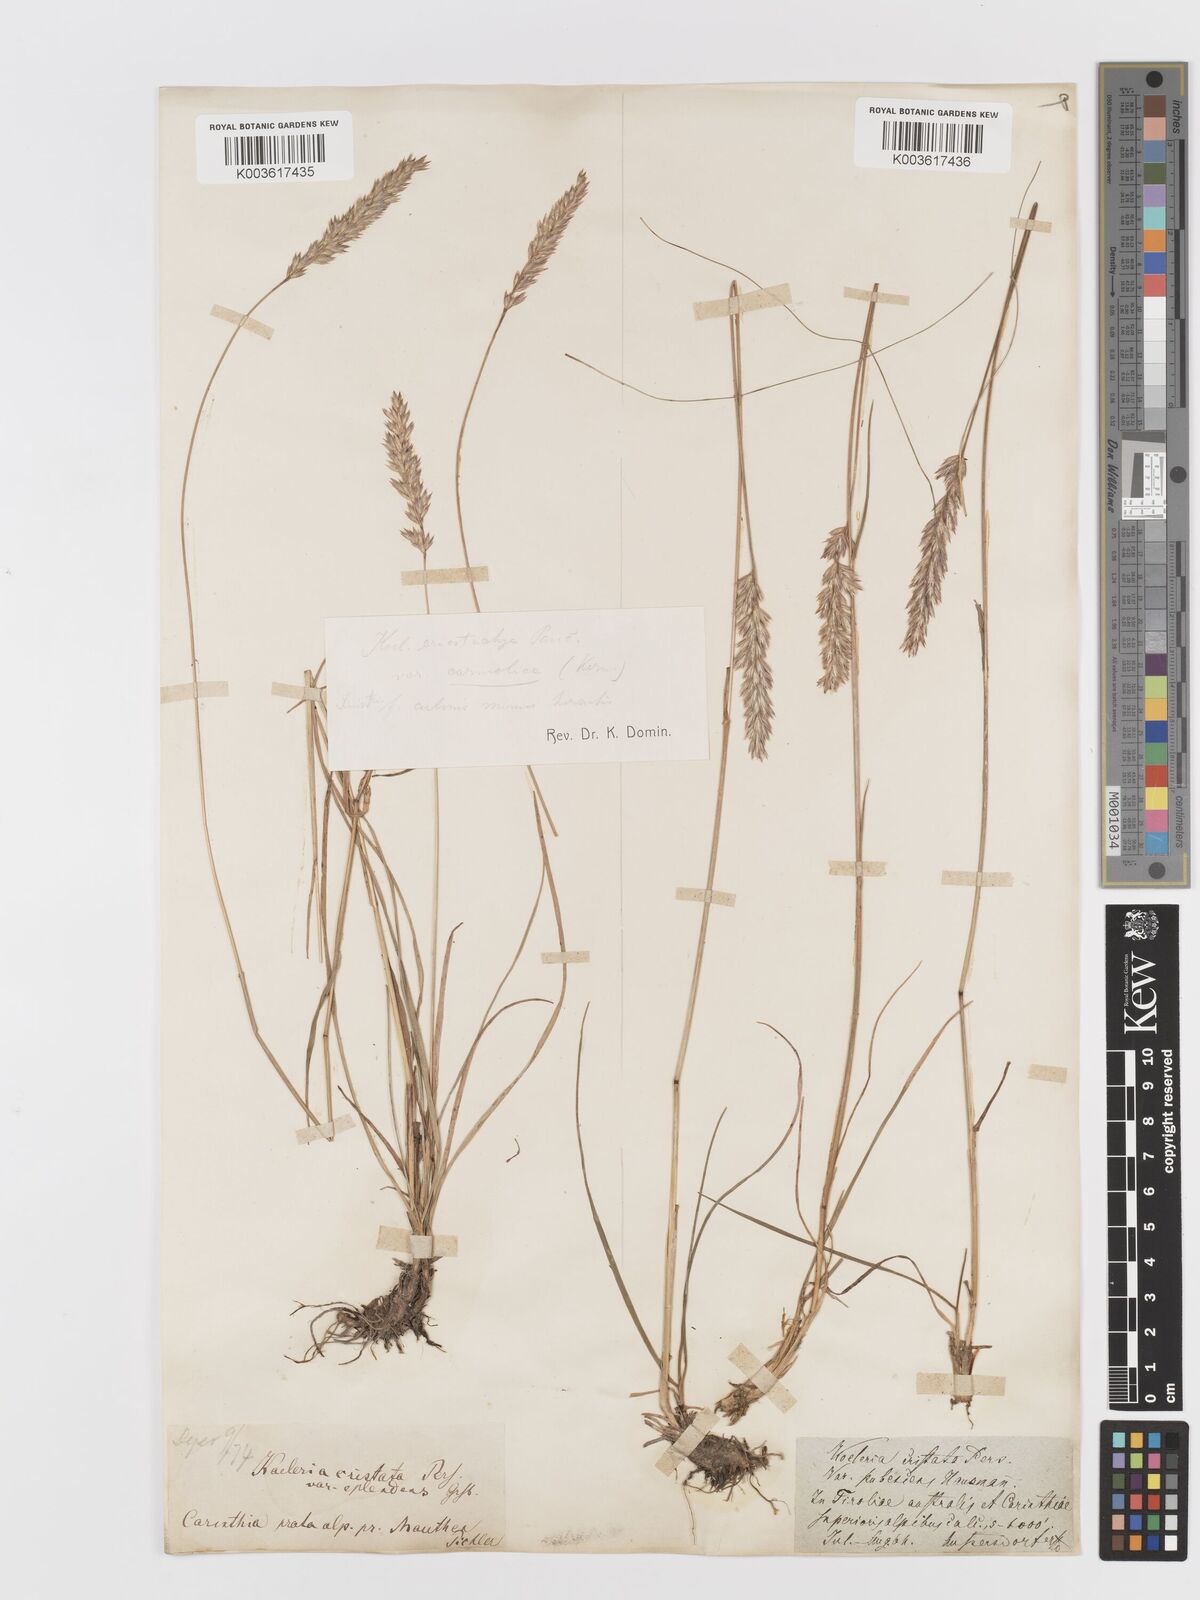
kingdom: Plantae
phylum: Tracheophyta
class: Liliopsida
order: Poales
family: Poaceae
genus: Koeleria
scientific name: Koeleria eriostachya
